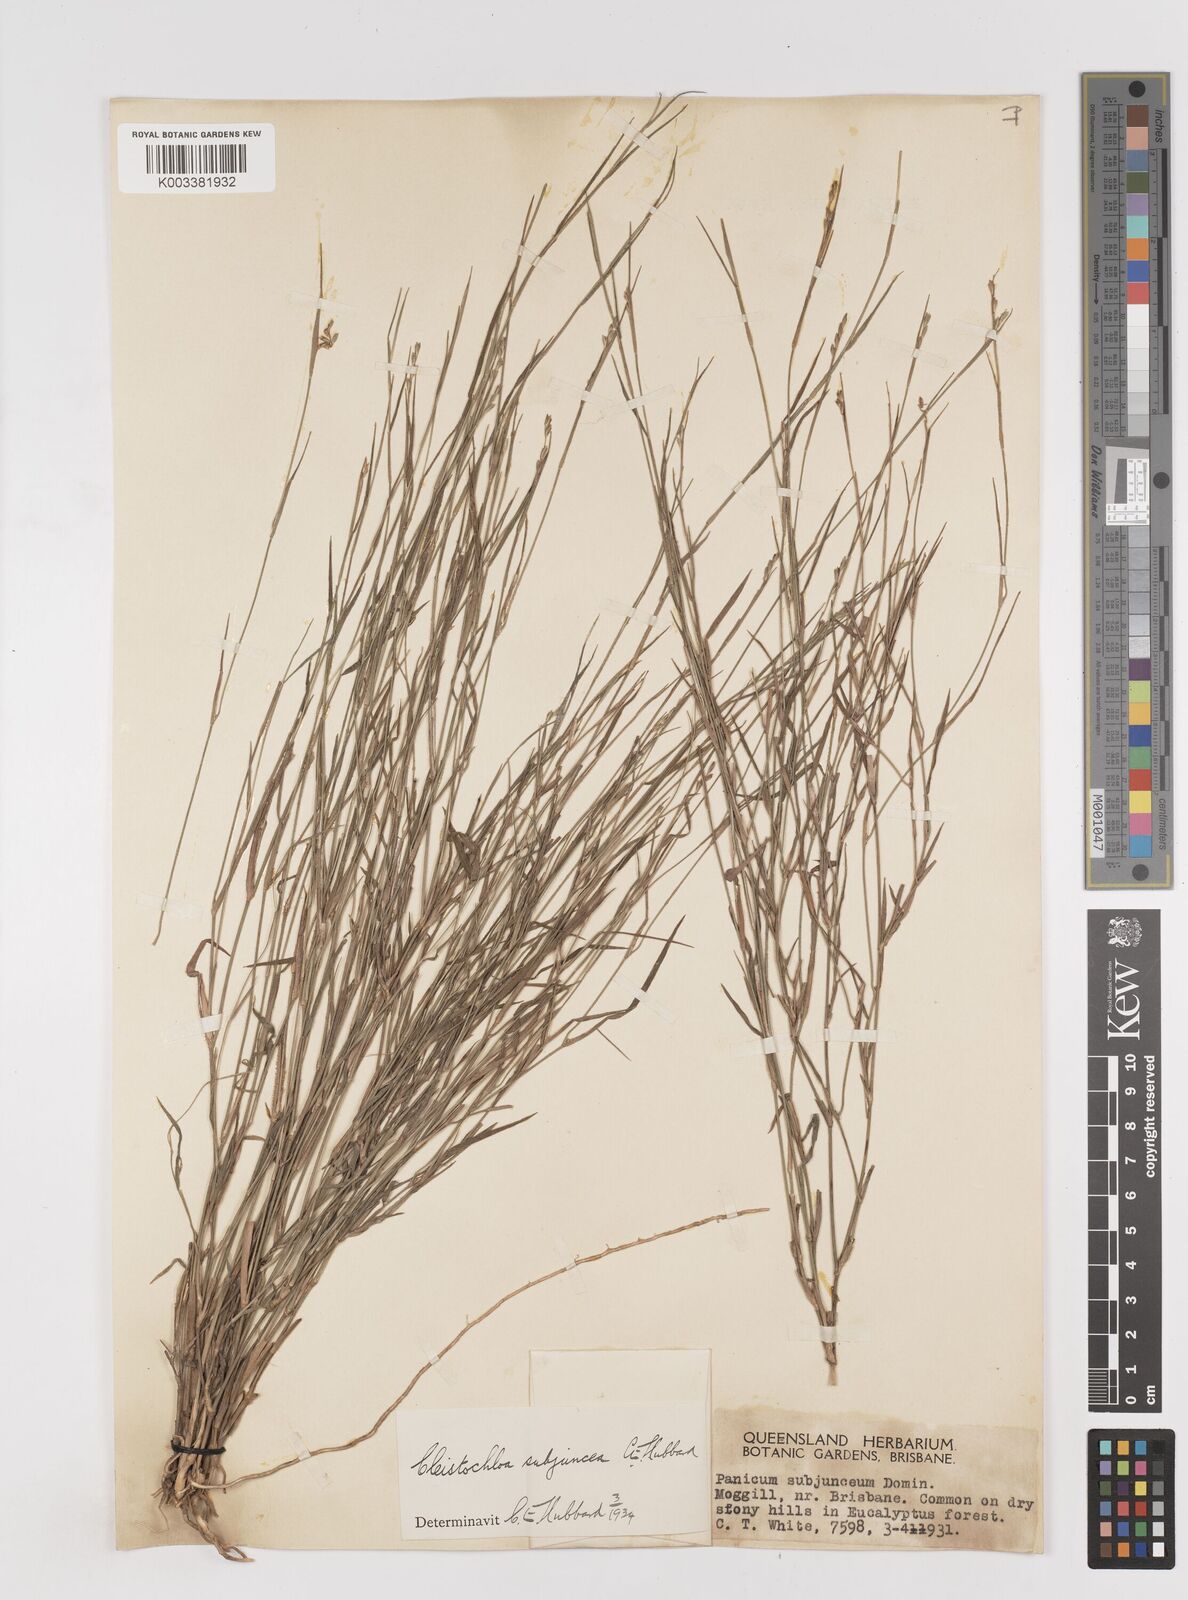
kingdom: Plantae
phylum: Tracheophyta
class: Liliopsida
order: Poales
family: Poaceae
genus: Cleistochloa
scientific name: Cleistochloa subjuncea
